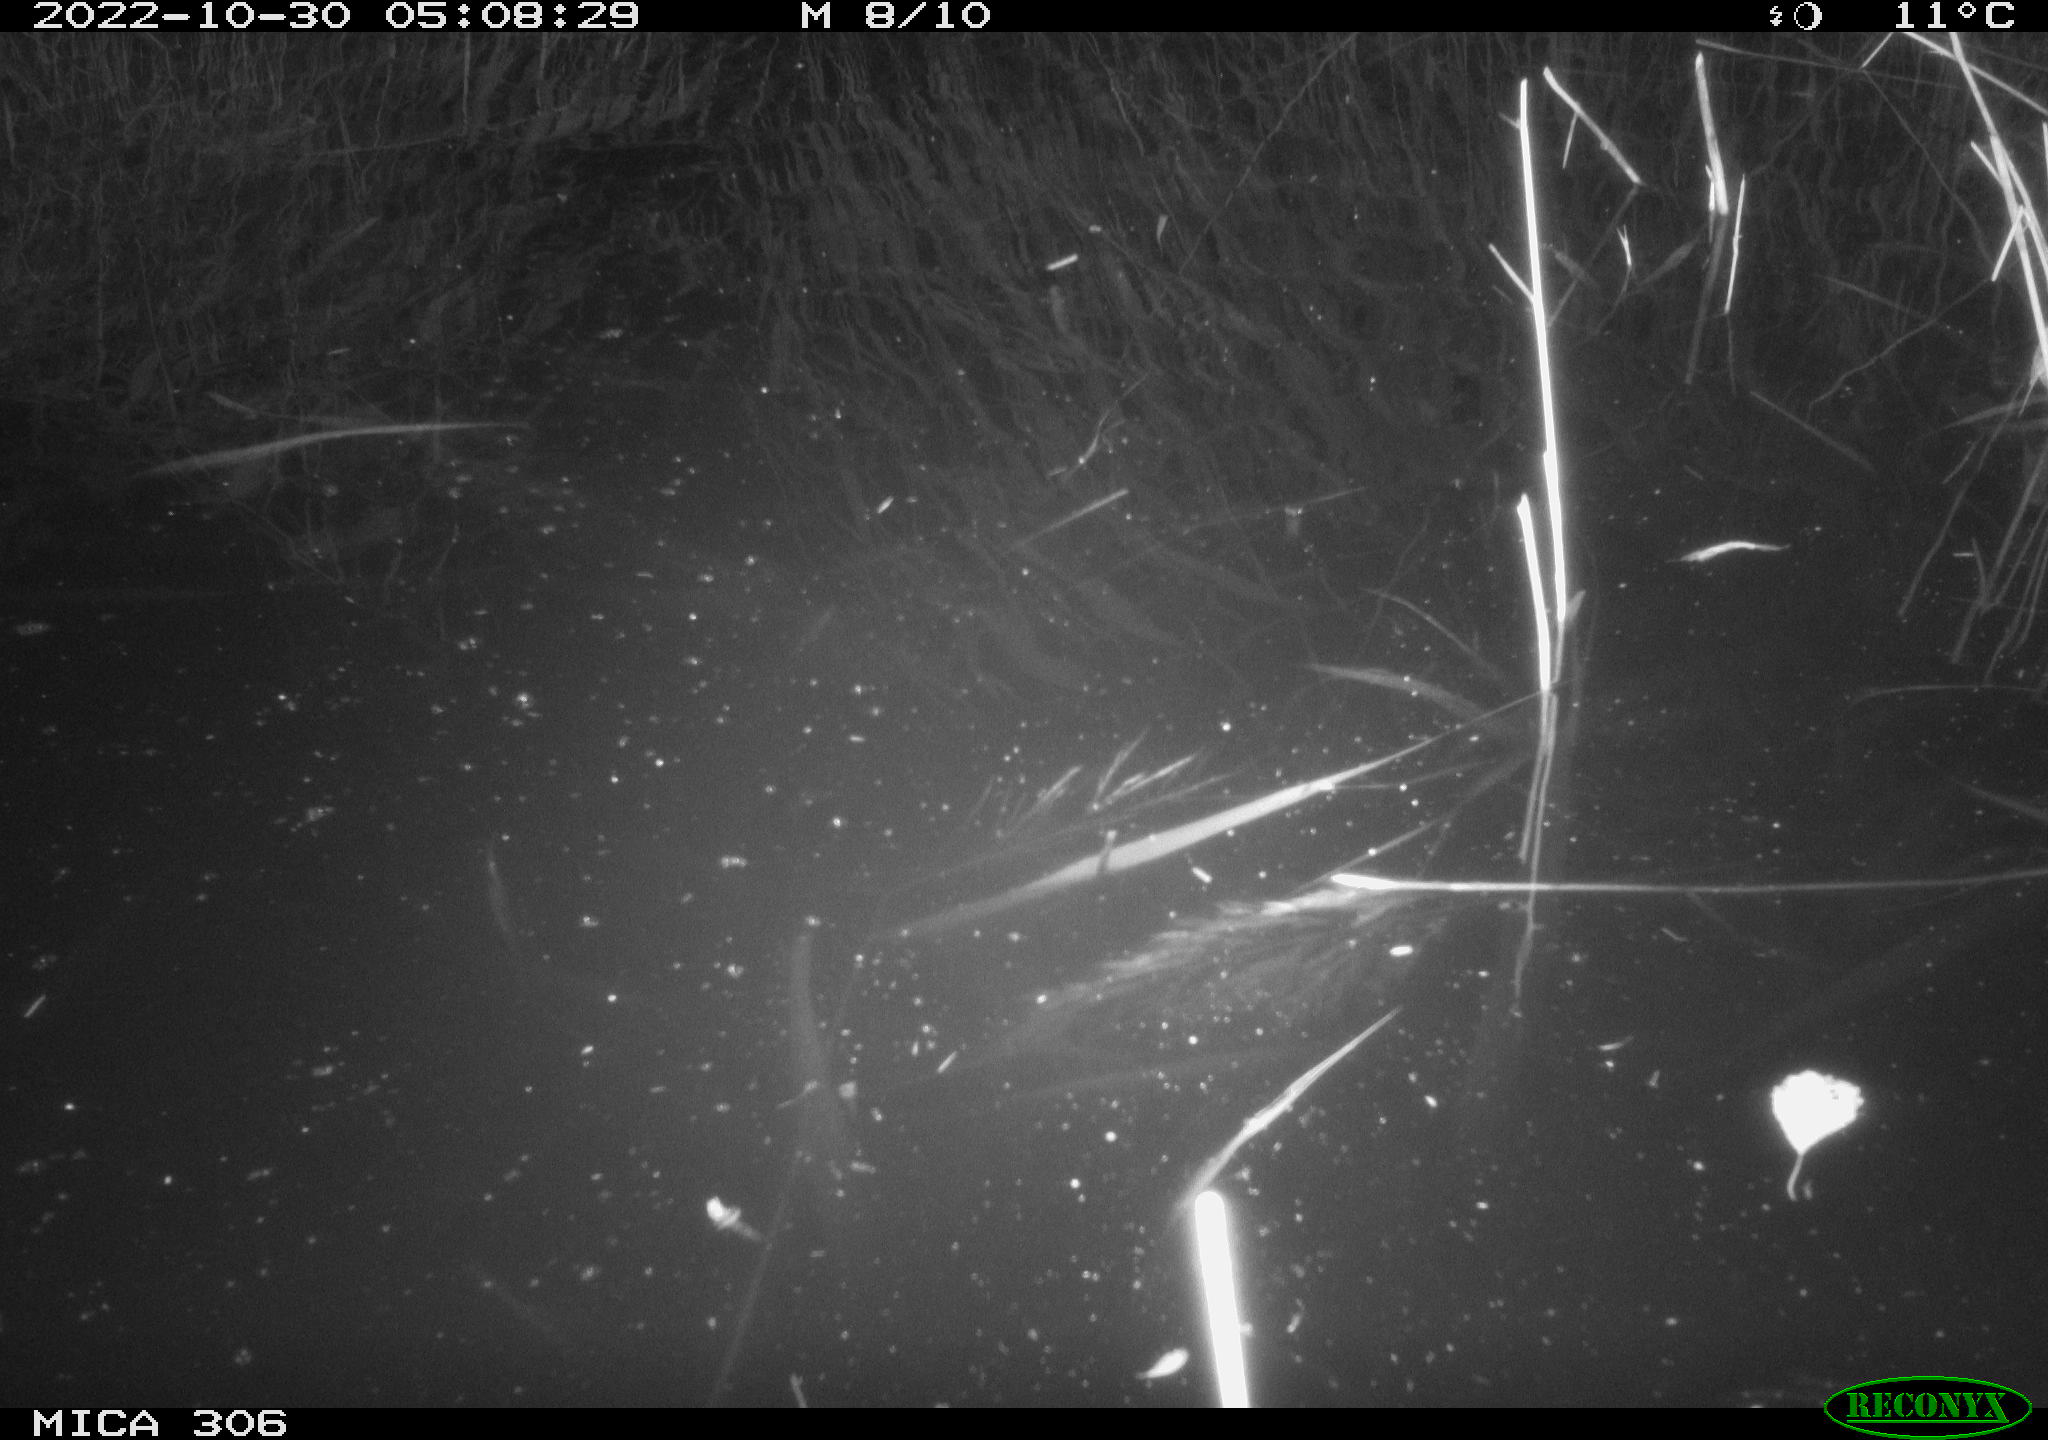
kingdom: Animalia
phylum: Chordata
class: Mammalia
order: Rodentia
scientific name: Rodentia
